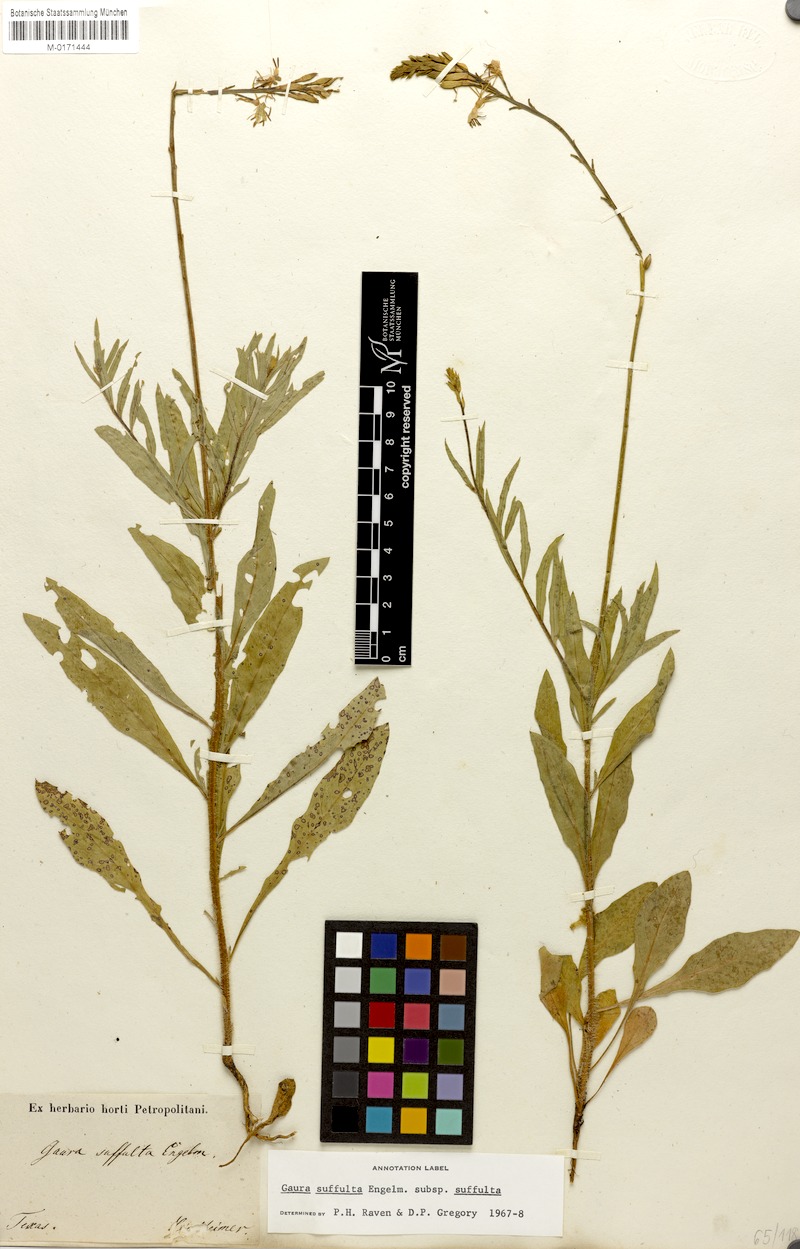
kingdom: Plantae
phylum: Tracheophyta
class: Magnoliopsida
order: Myrtales
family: Onagraceae
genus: Oenothera
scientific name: Oenothera Gaura suffulta
